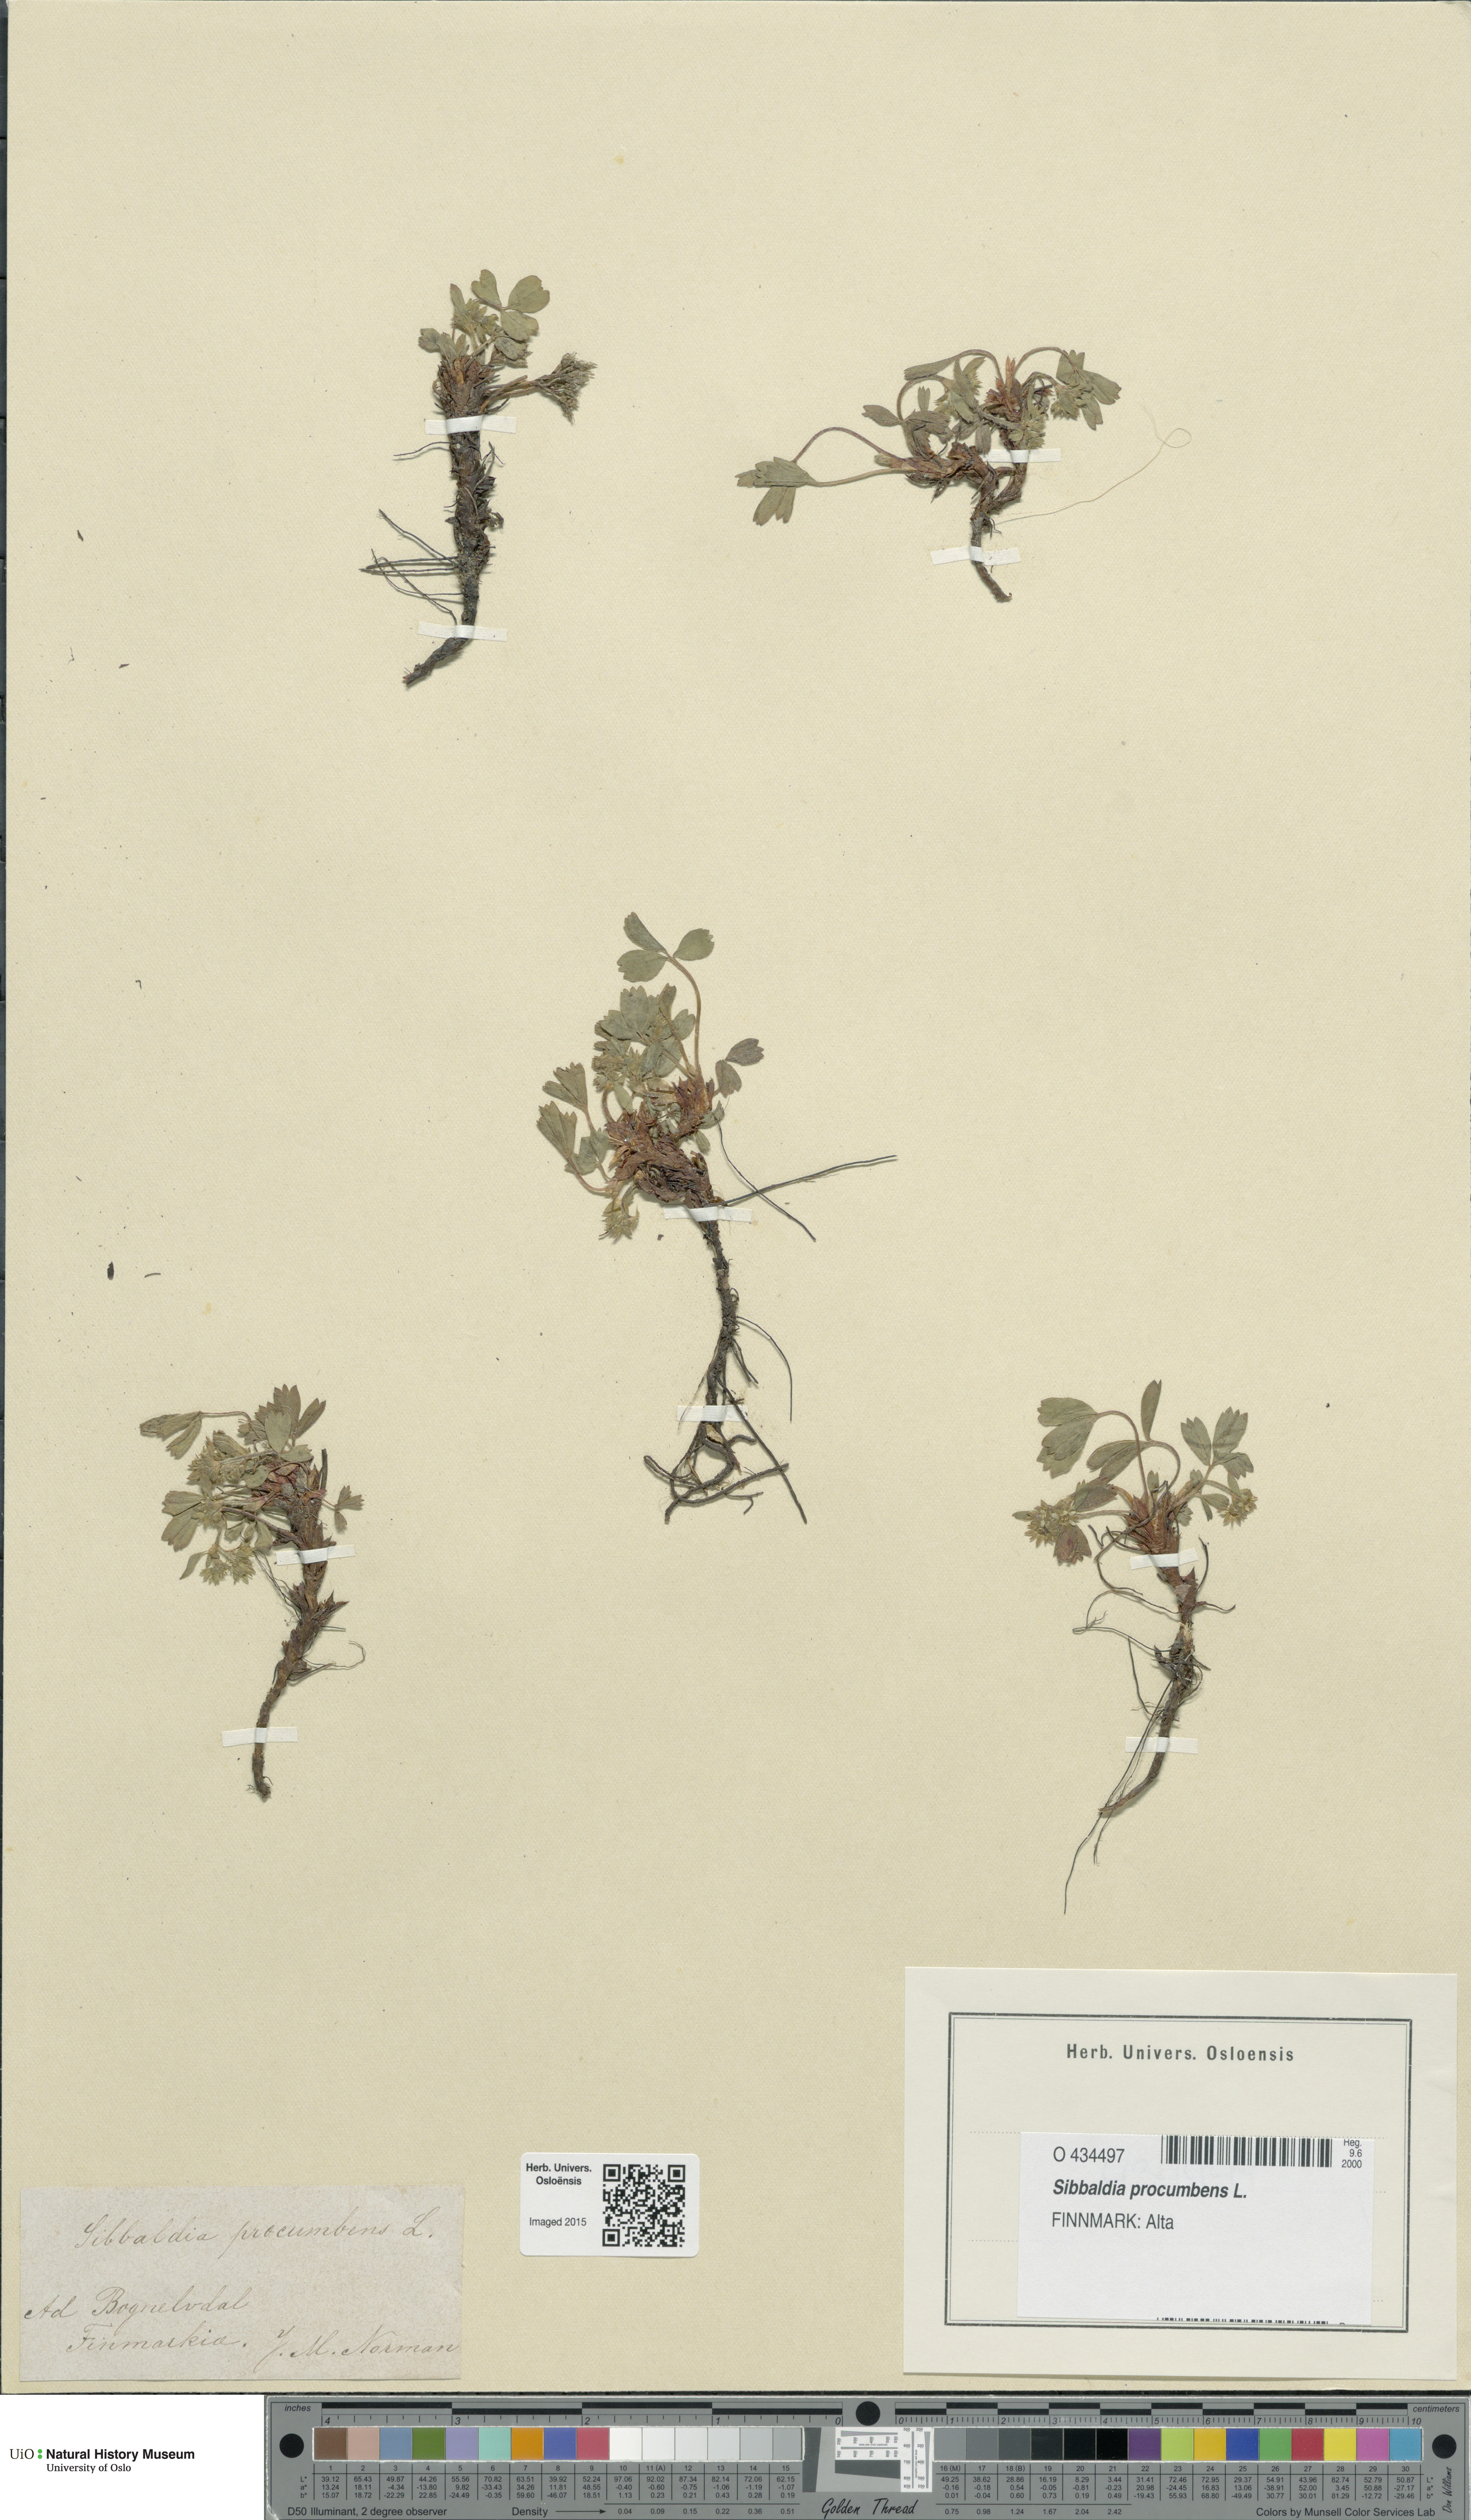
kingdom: Plantae
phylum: Tracheophyta
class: Magnoliopsida
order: Rosales
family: Rosaceae
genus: Sibbaldia
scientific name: Sibbaldia procumbens
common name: Creeping sibbaldia
